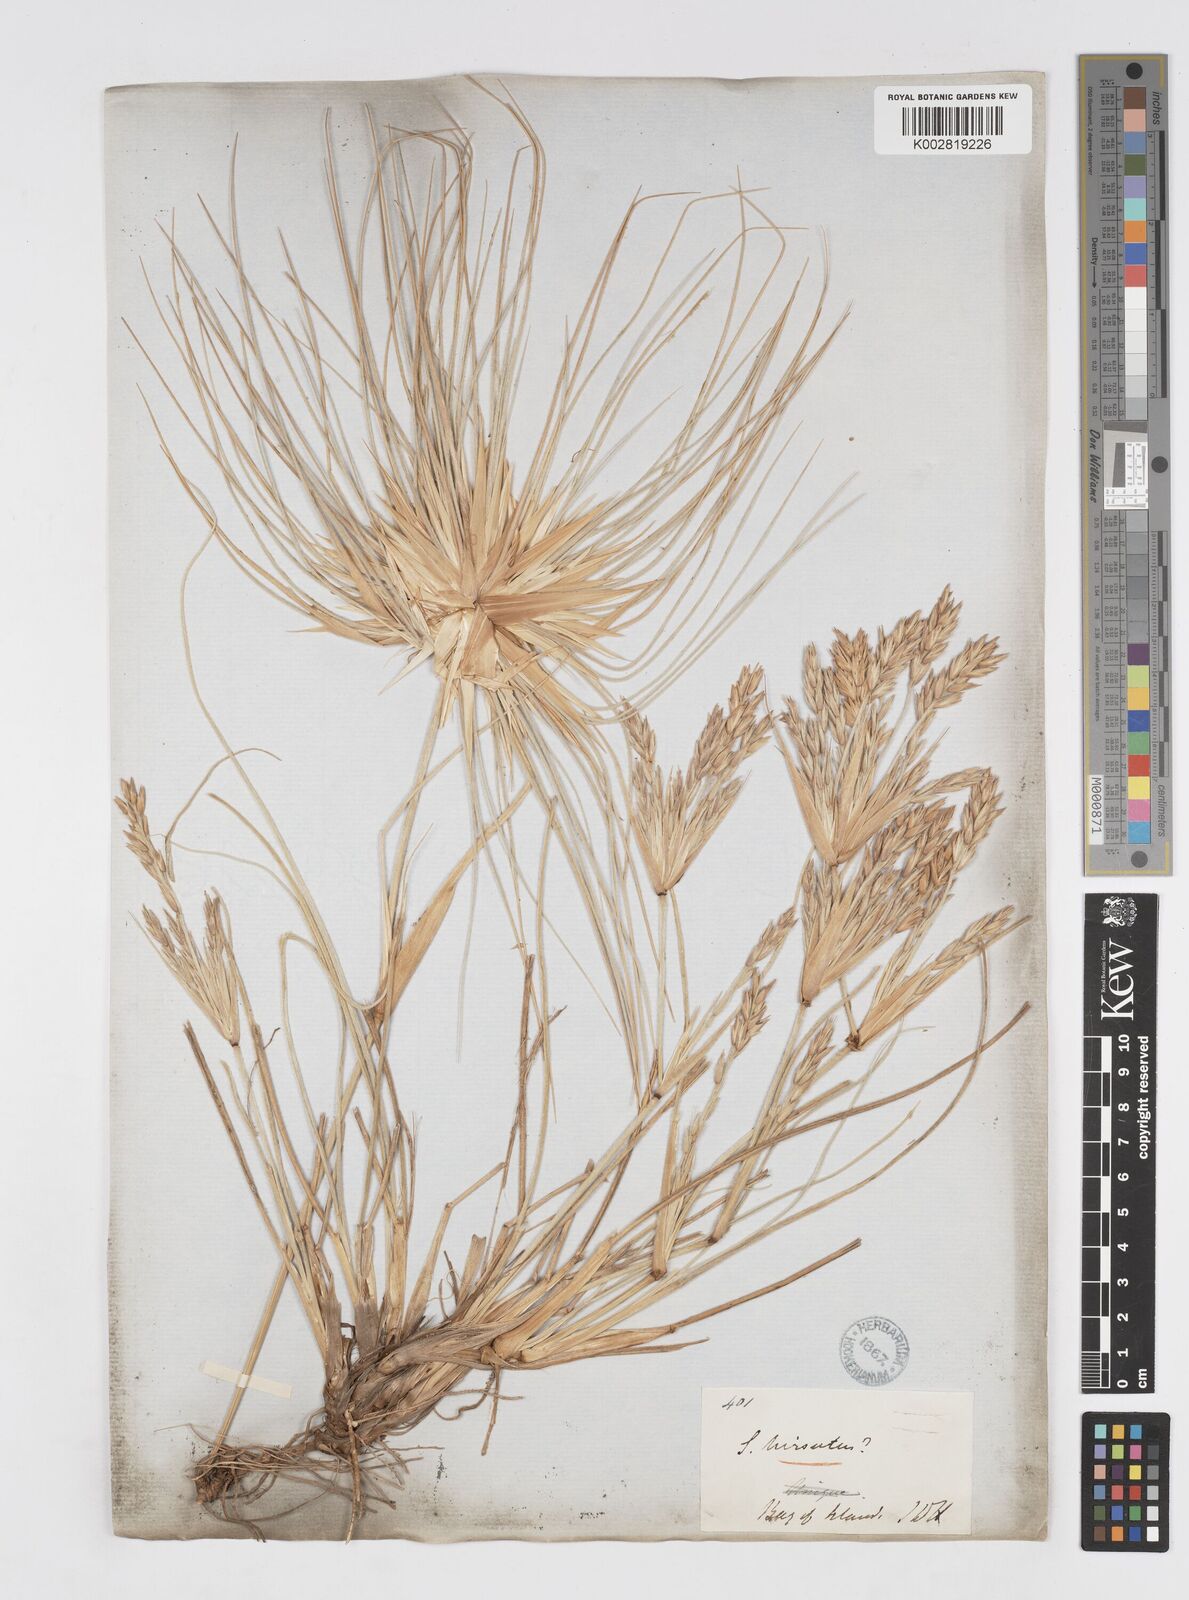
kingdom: Plantae
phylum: Tracheophyta
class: Liliopsida
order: Poales
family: Poaceae
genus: Spinifex
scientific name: Spinifex sericeus
